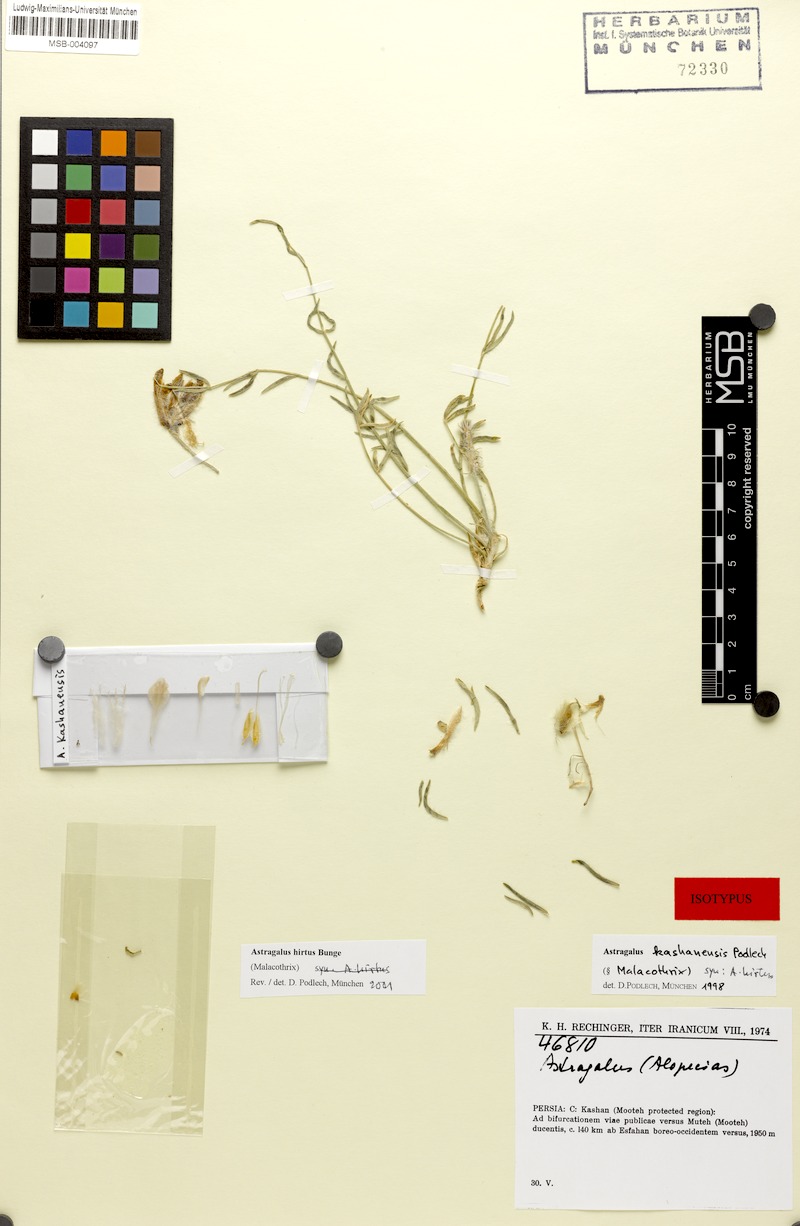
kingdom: Plantae
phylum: Tracheophyta
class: Magnoliopsida
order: Fabales
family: Fabaceae
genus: Astragalus
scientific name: Astragalus hirtus
